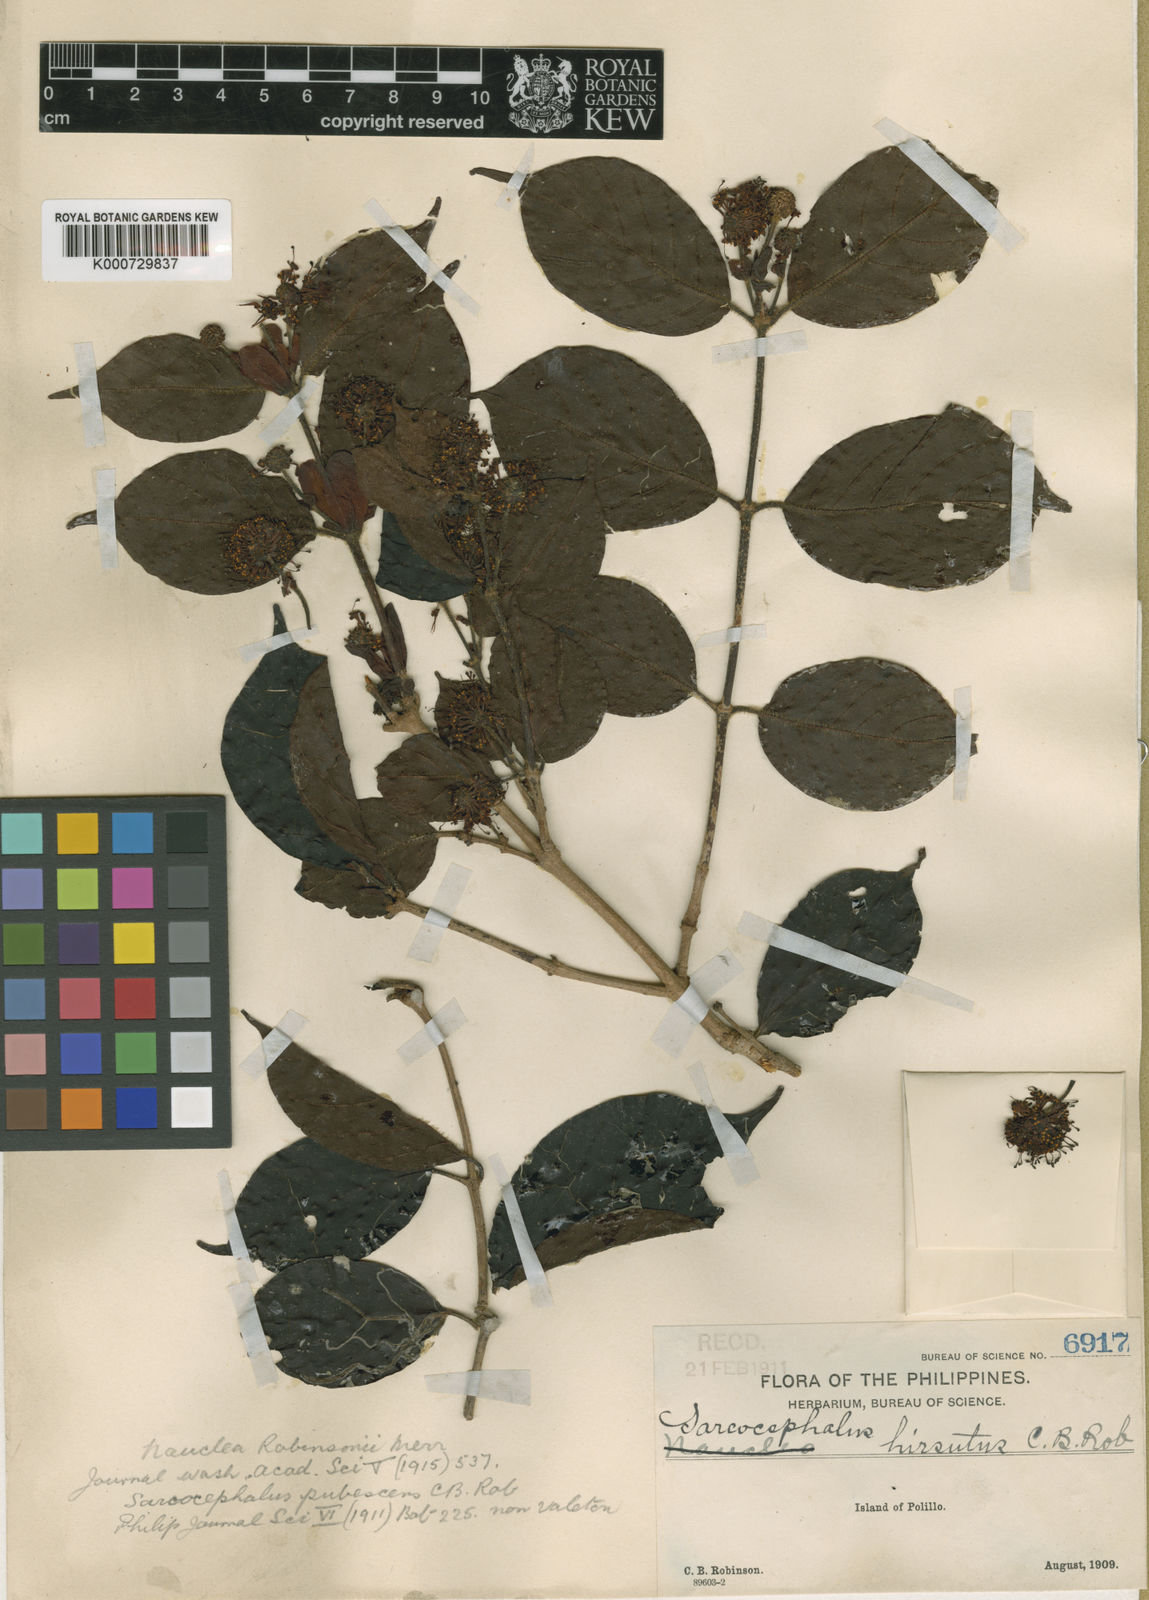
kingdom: Plantae
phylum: Tracheophyta
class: Magnoliopsida
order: Gentianales
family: Rubiaceae
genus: Nauclea
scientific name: Nauclea robinsonii
